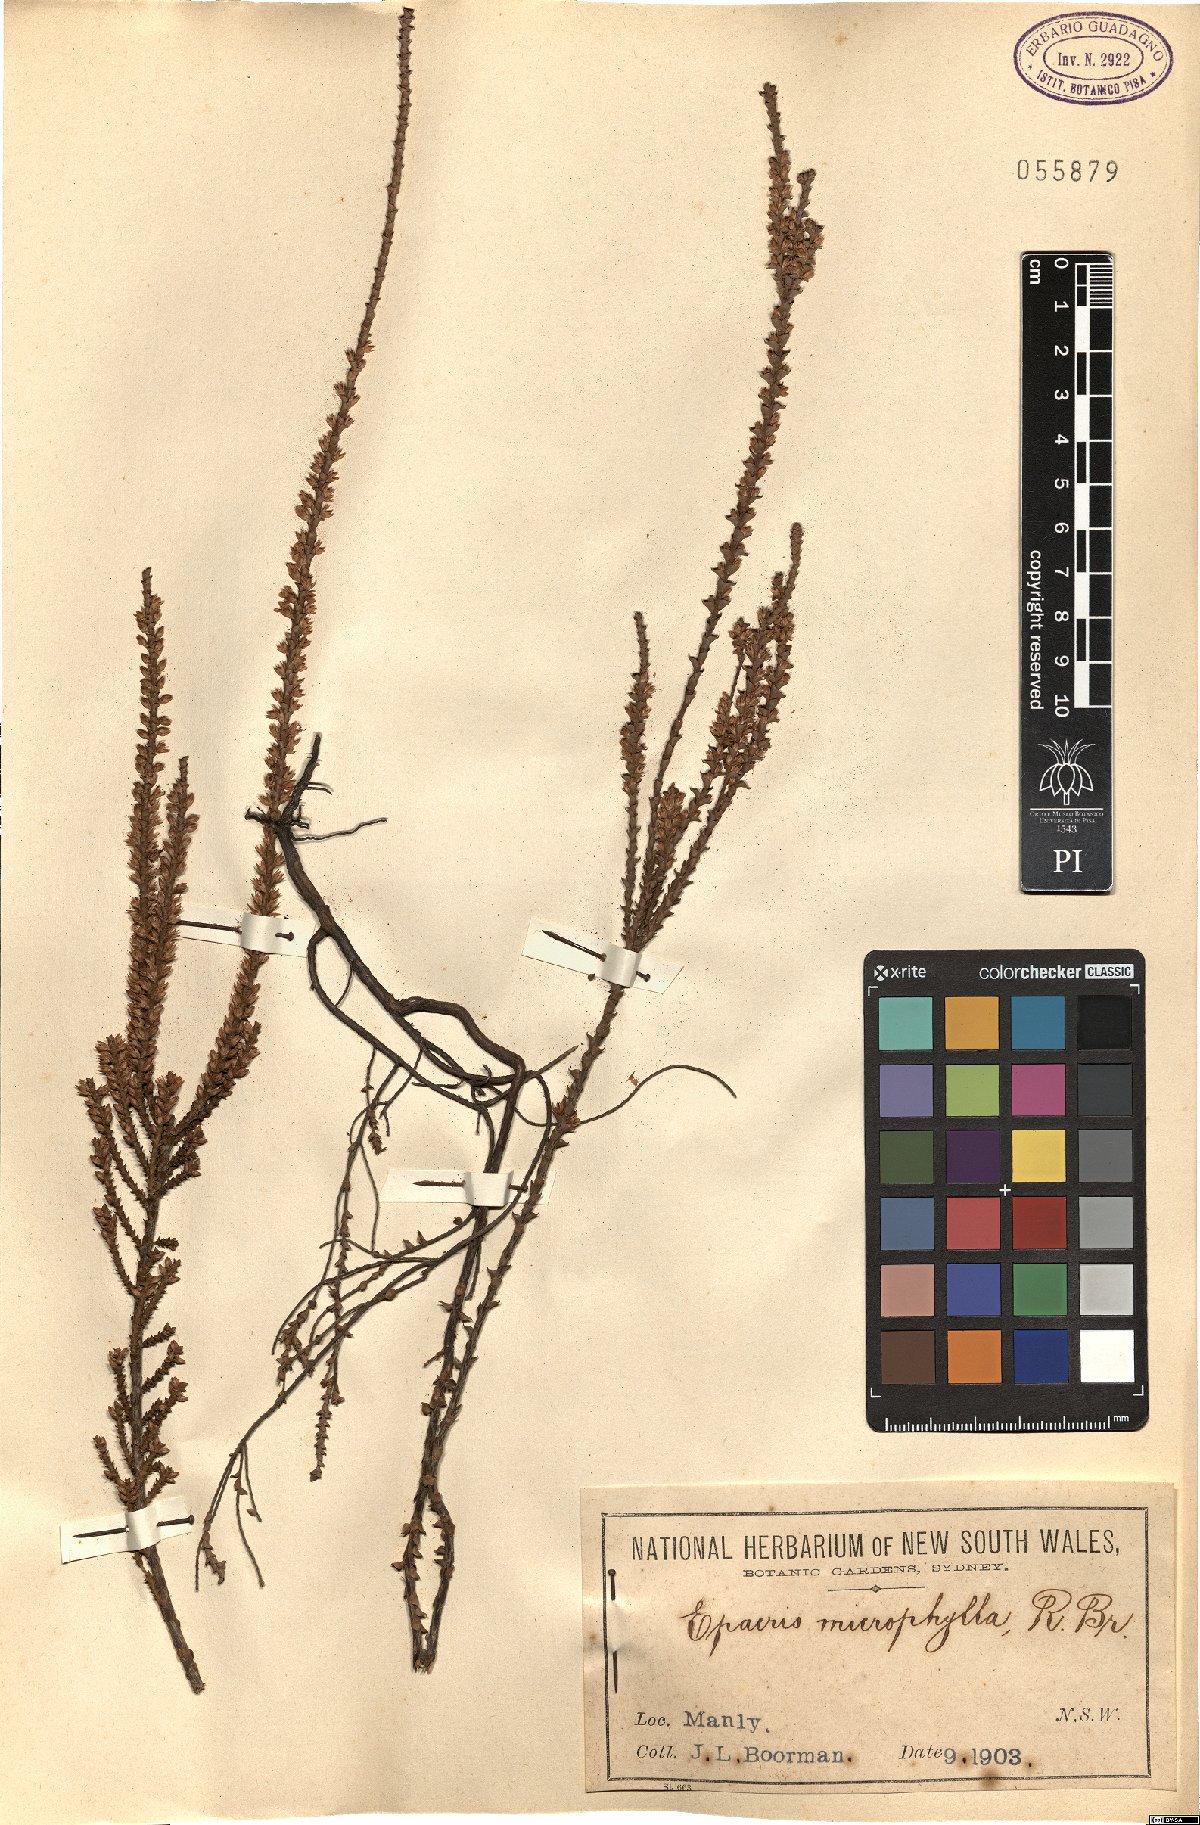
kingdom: Plantae
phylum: Tracheophyta
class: Magnoliopsida
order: Ericales
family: Ericaceae
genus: Epacris
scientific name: Epacris microphylla
